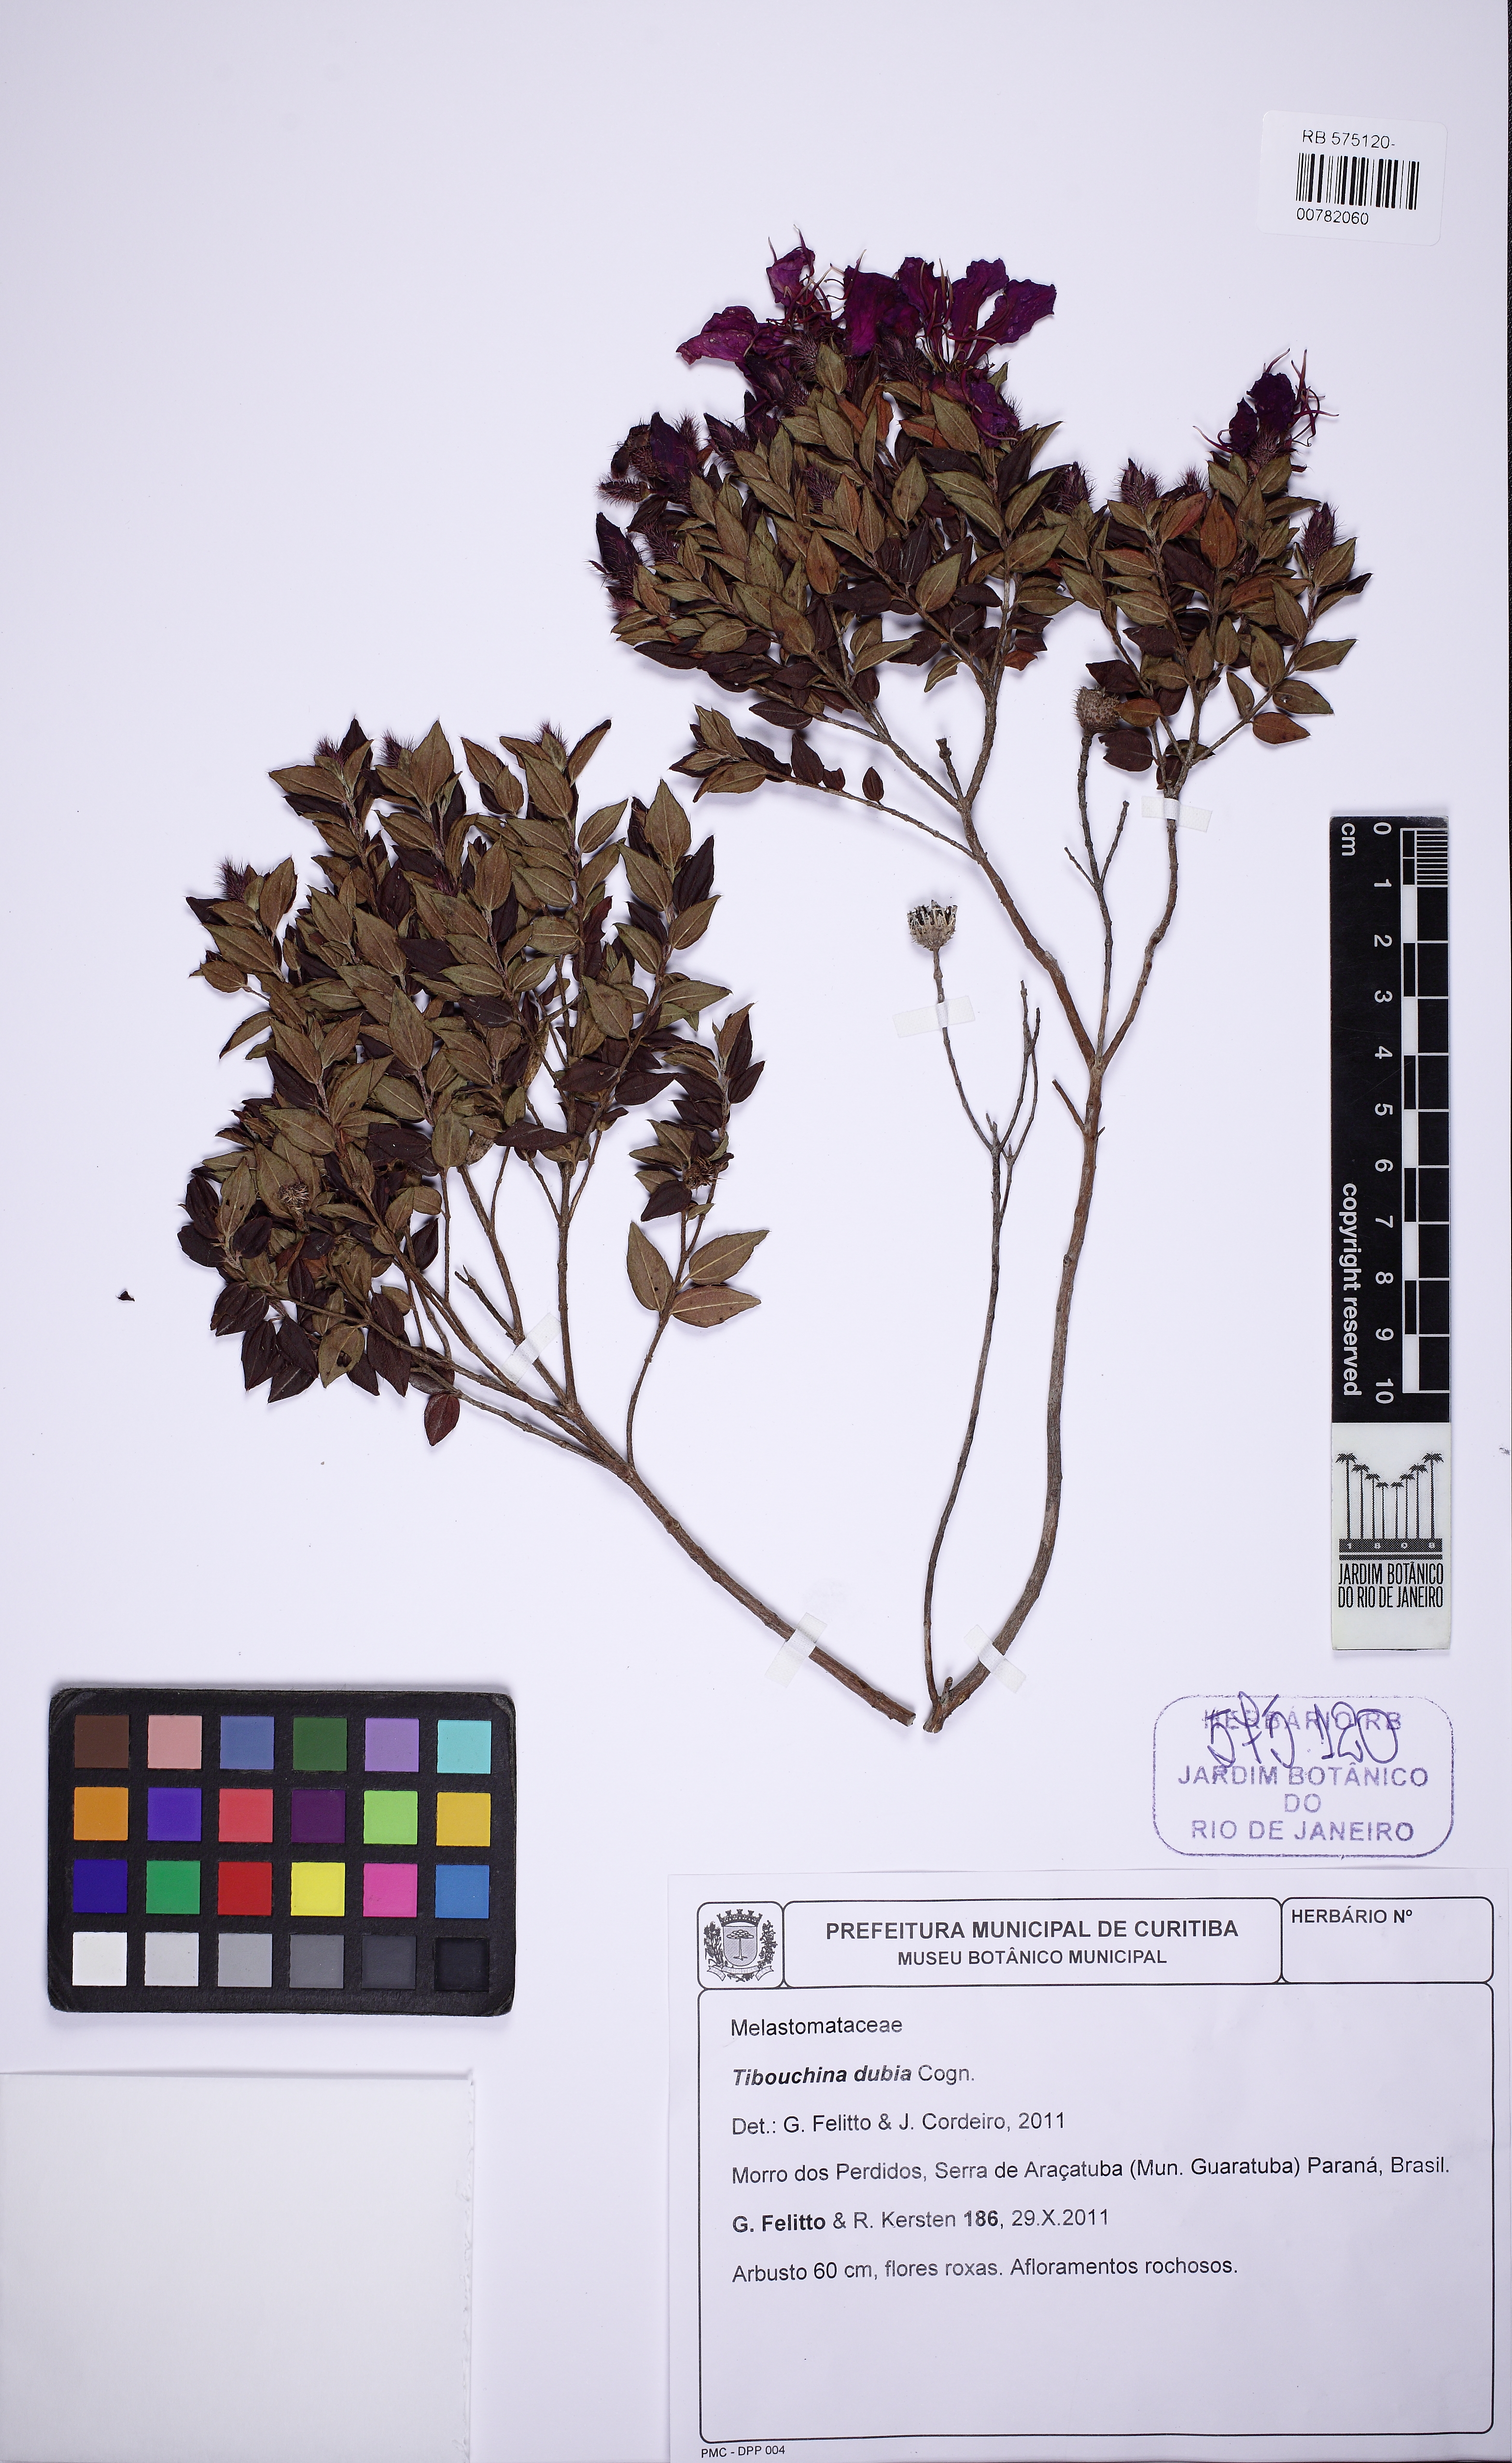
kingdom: Plantae
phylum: Tracheophyta
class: Magnoliopsida
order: Myrtales
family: Melastomataceae
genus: Pleroma
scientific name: Pleroma dubium
